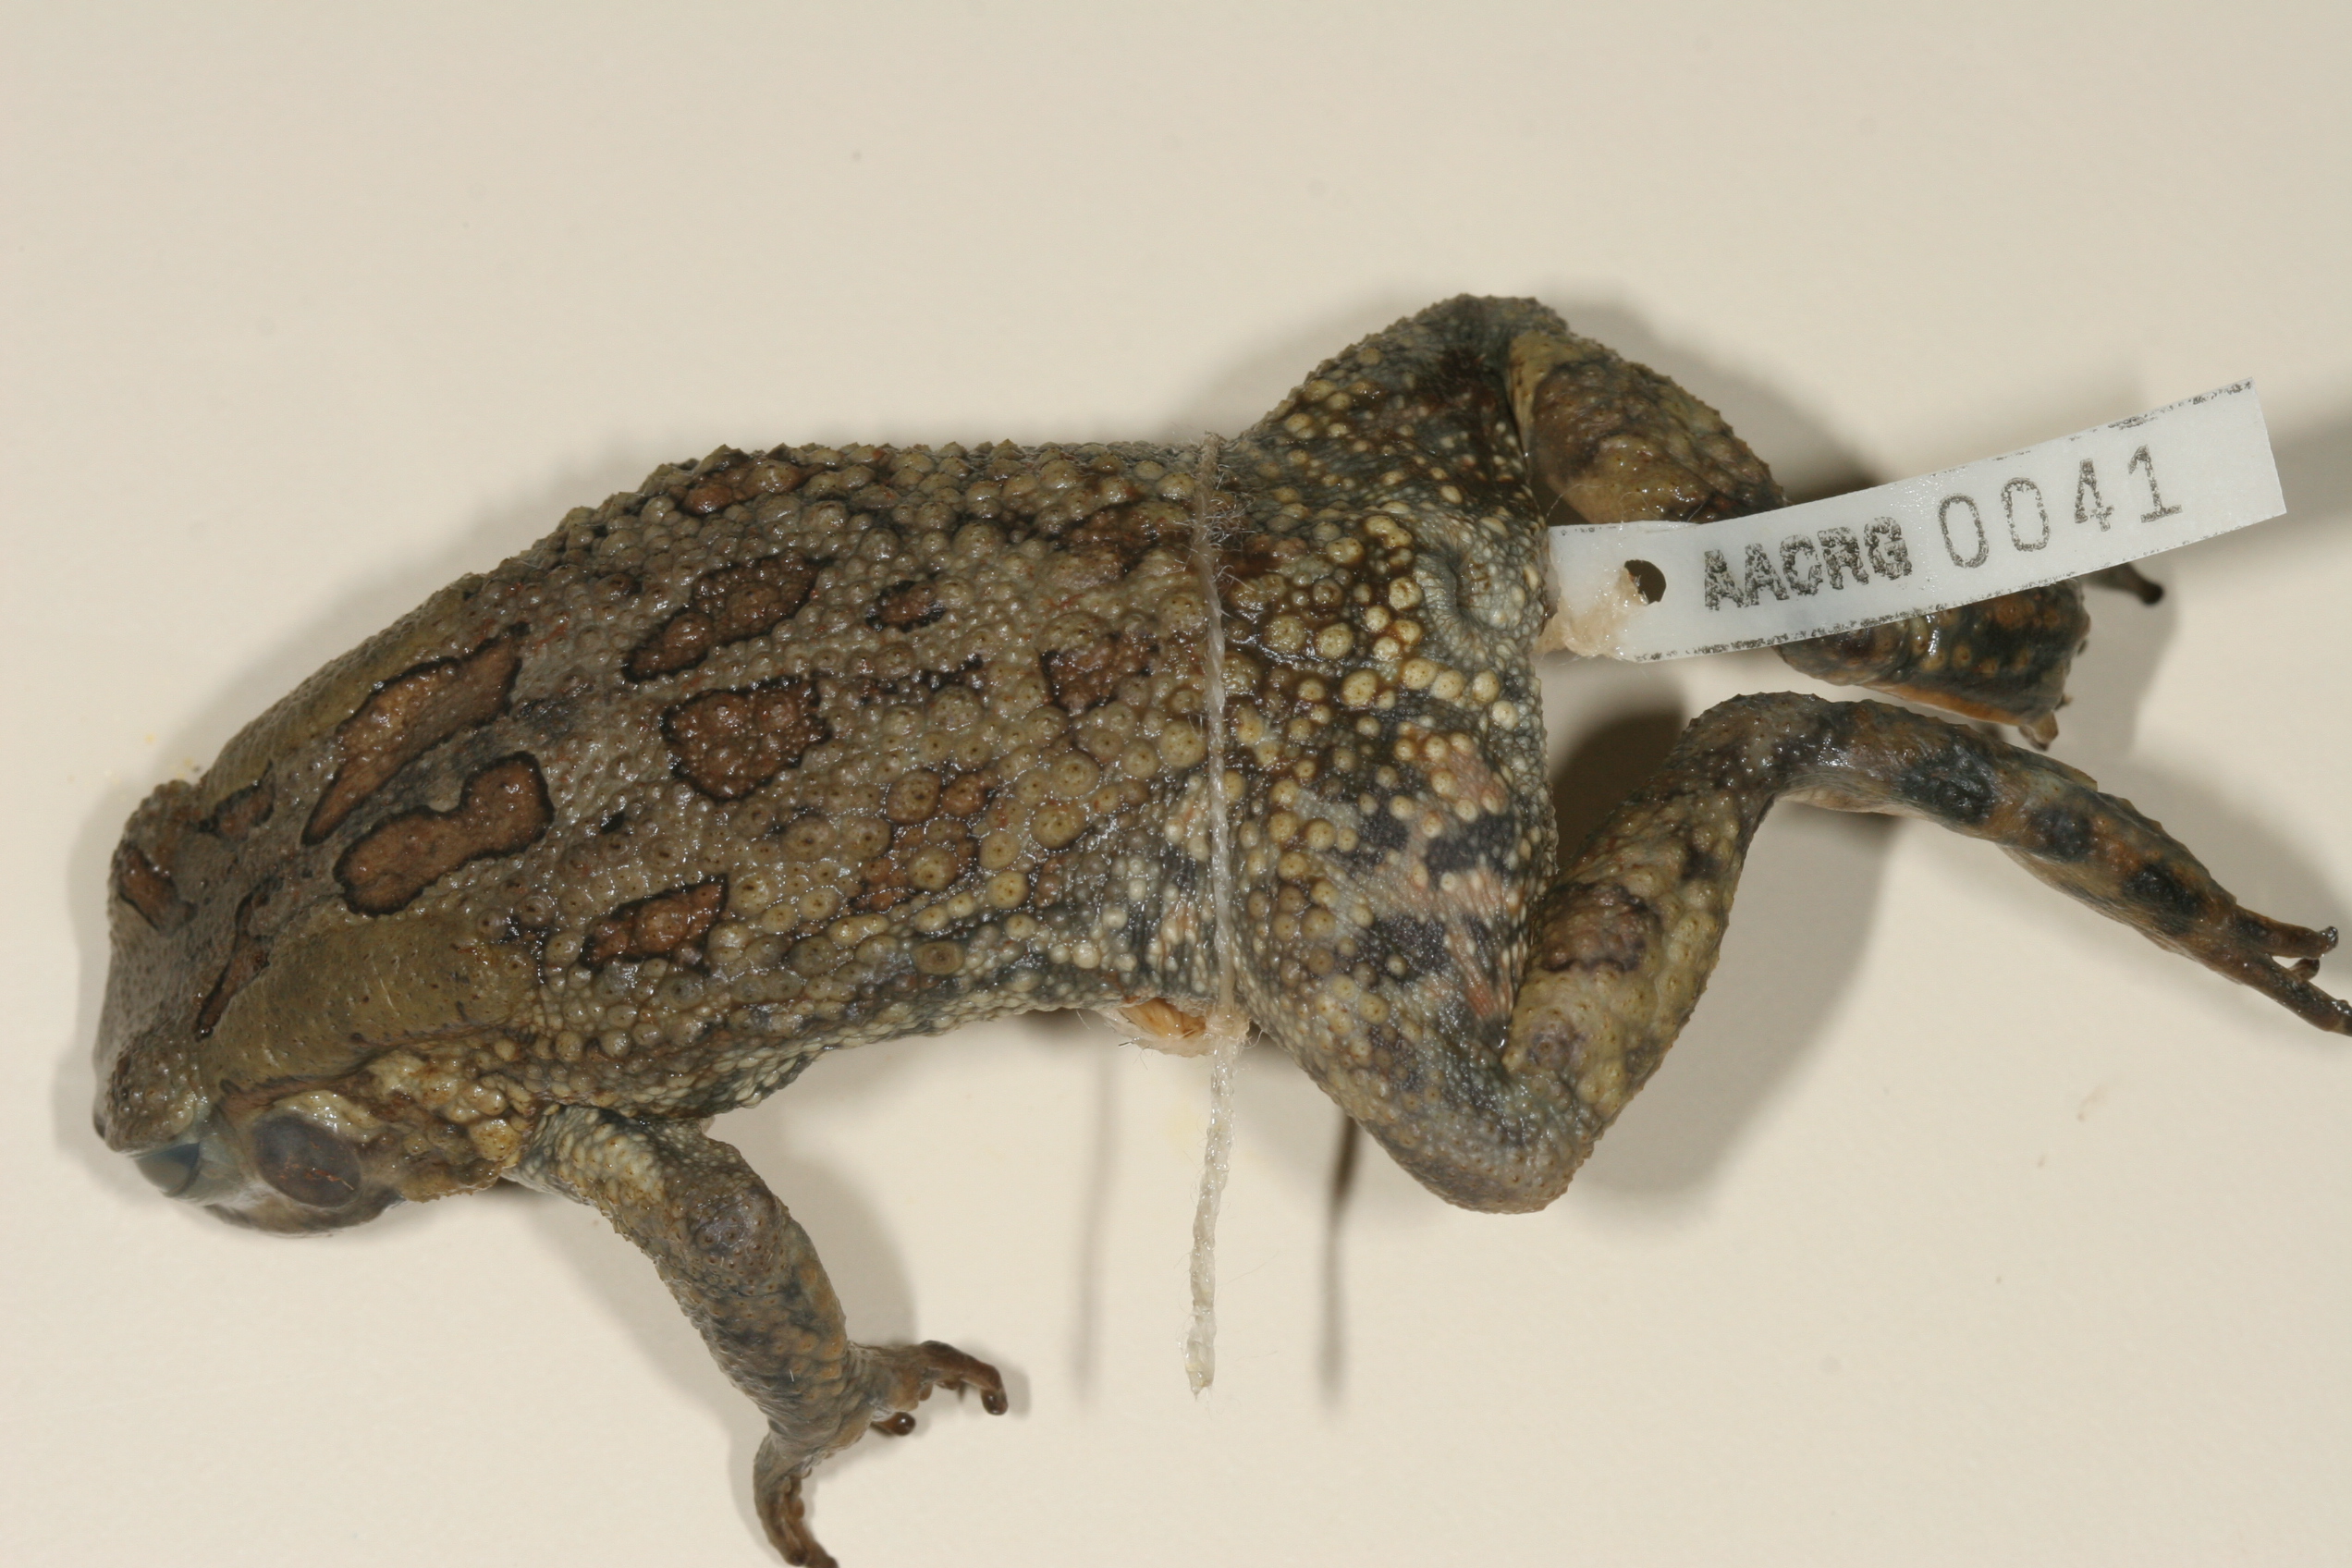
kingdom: Animalia
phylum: Chordata
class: Amphibia
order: Anura
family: Bufonidae
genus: Sclerophrys
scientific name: Sclerophrys garmani
